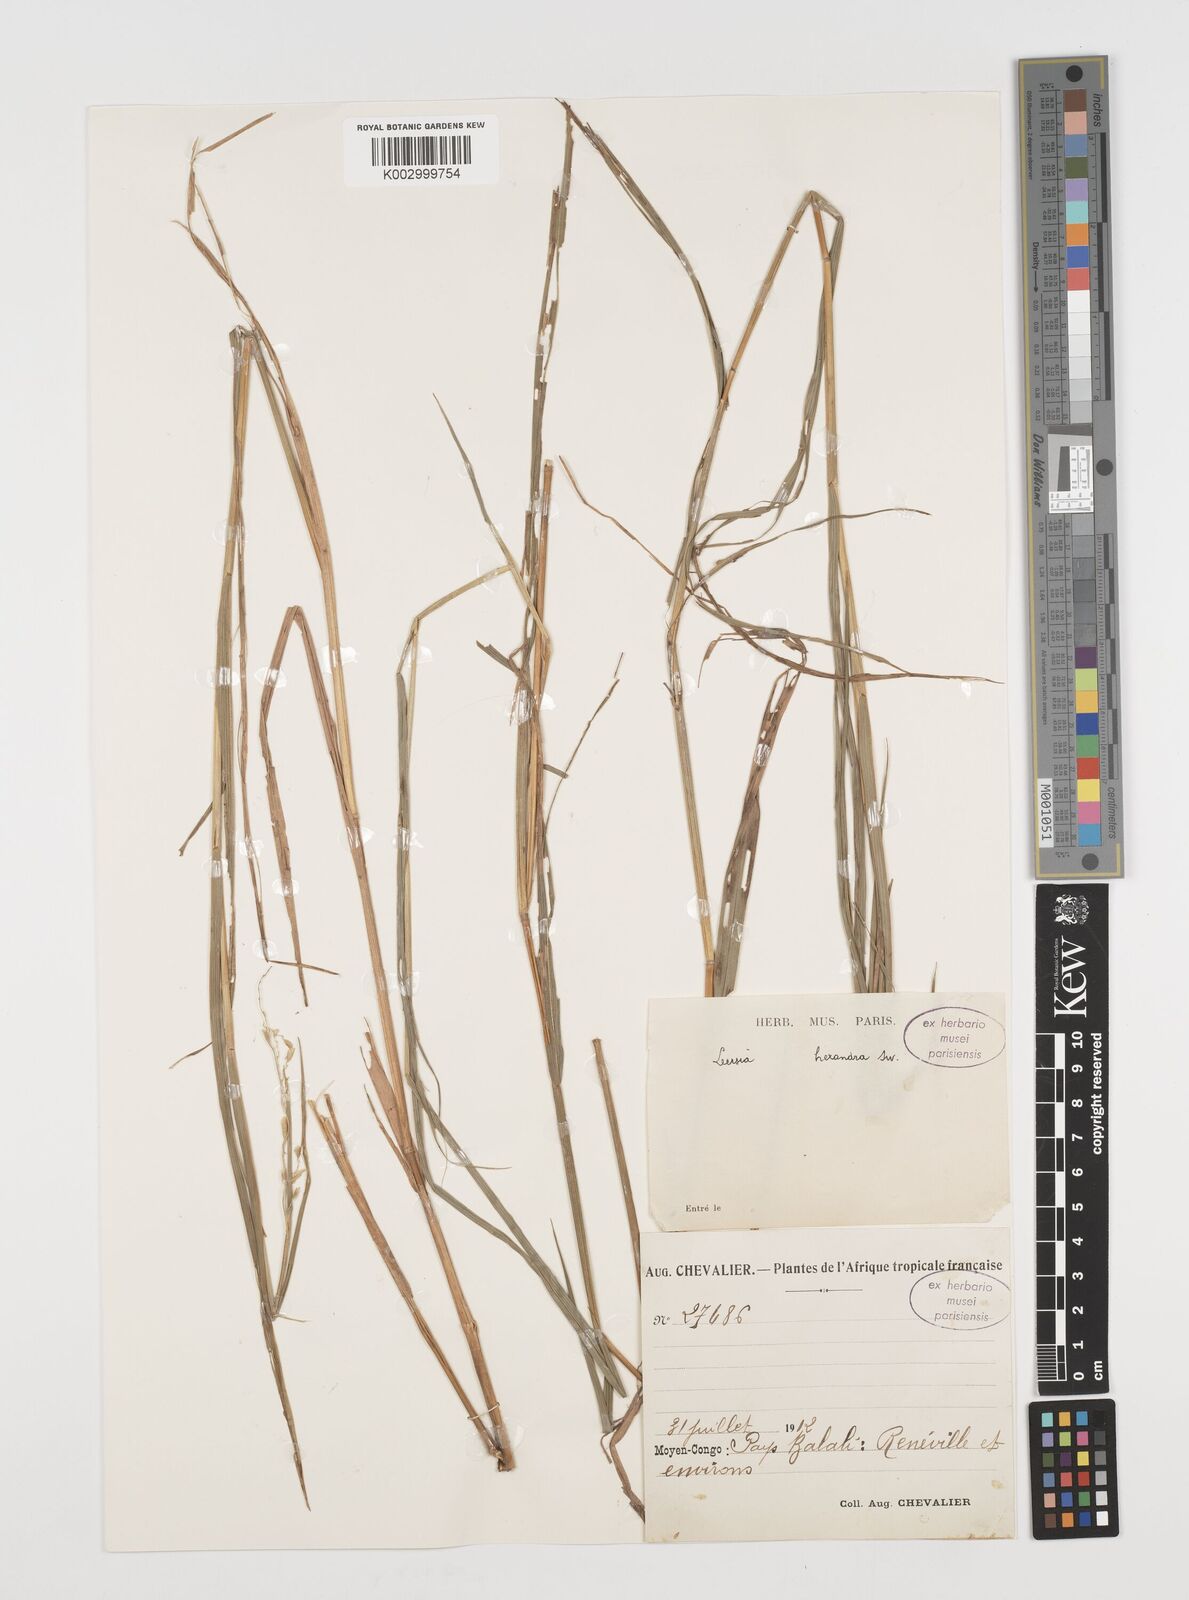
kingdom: Plantae
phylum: Tracheophyta
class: Liliopsida
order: Poales
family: Poaceae
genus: Leersia
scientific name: Leersia hexandra
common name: Southern cut grass
